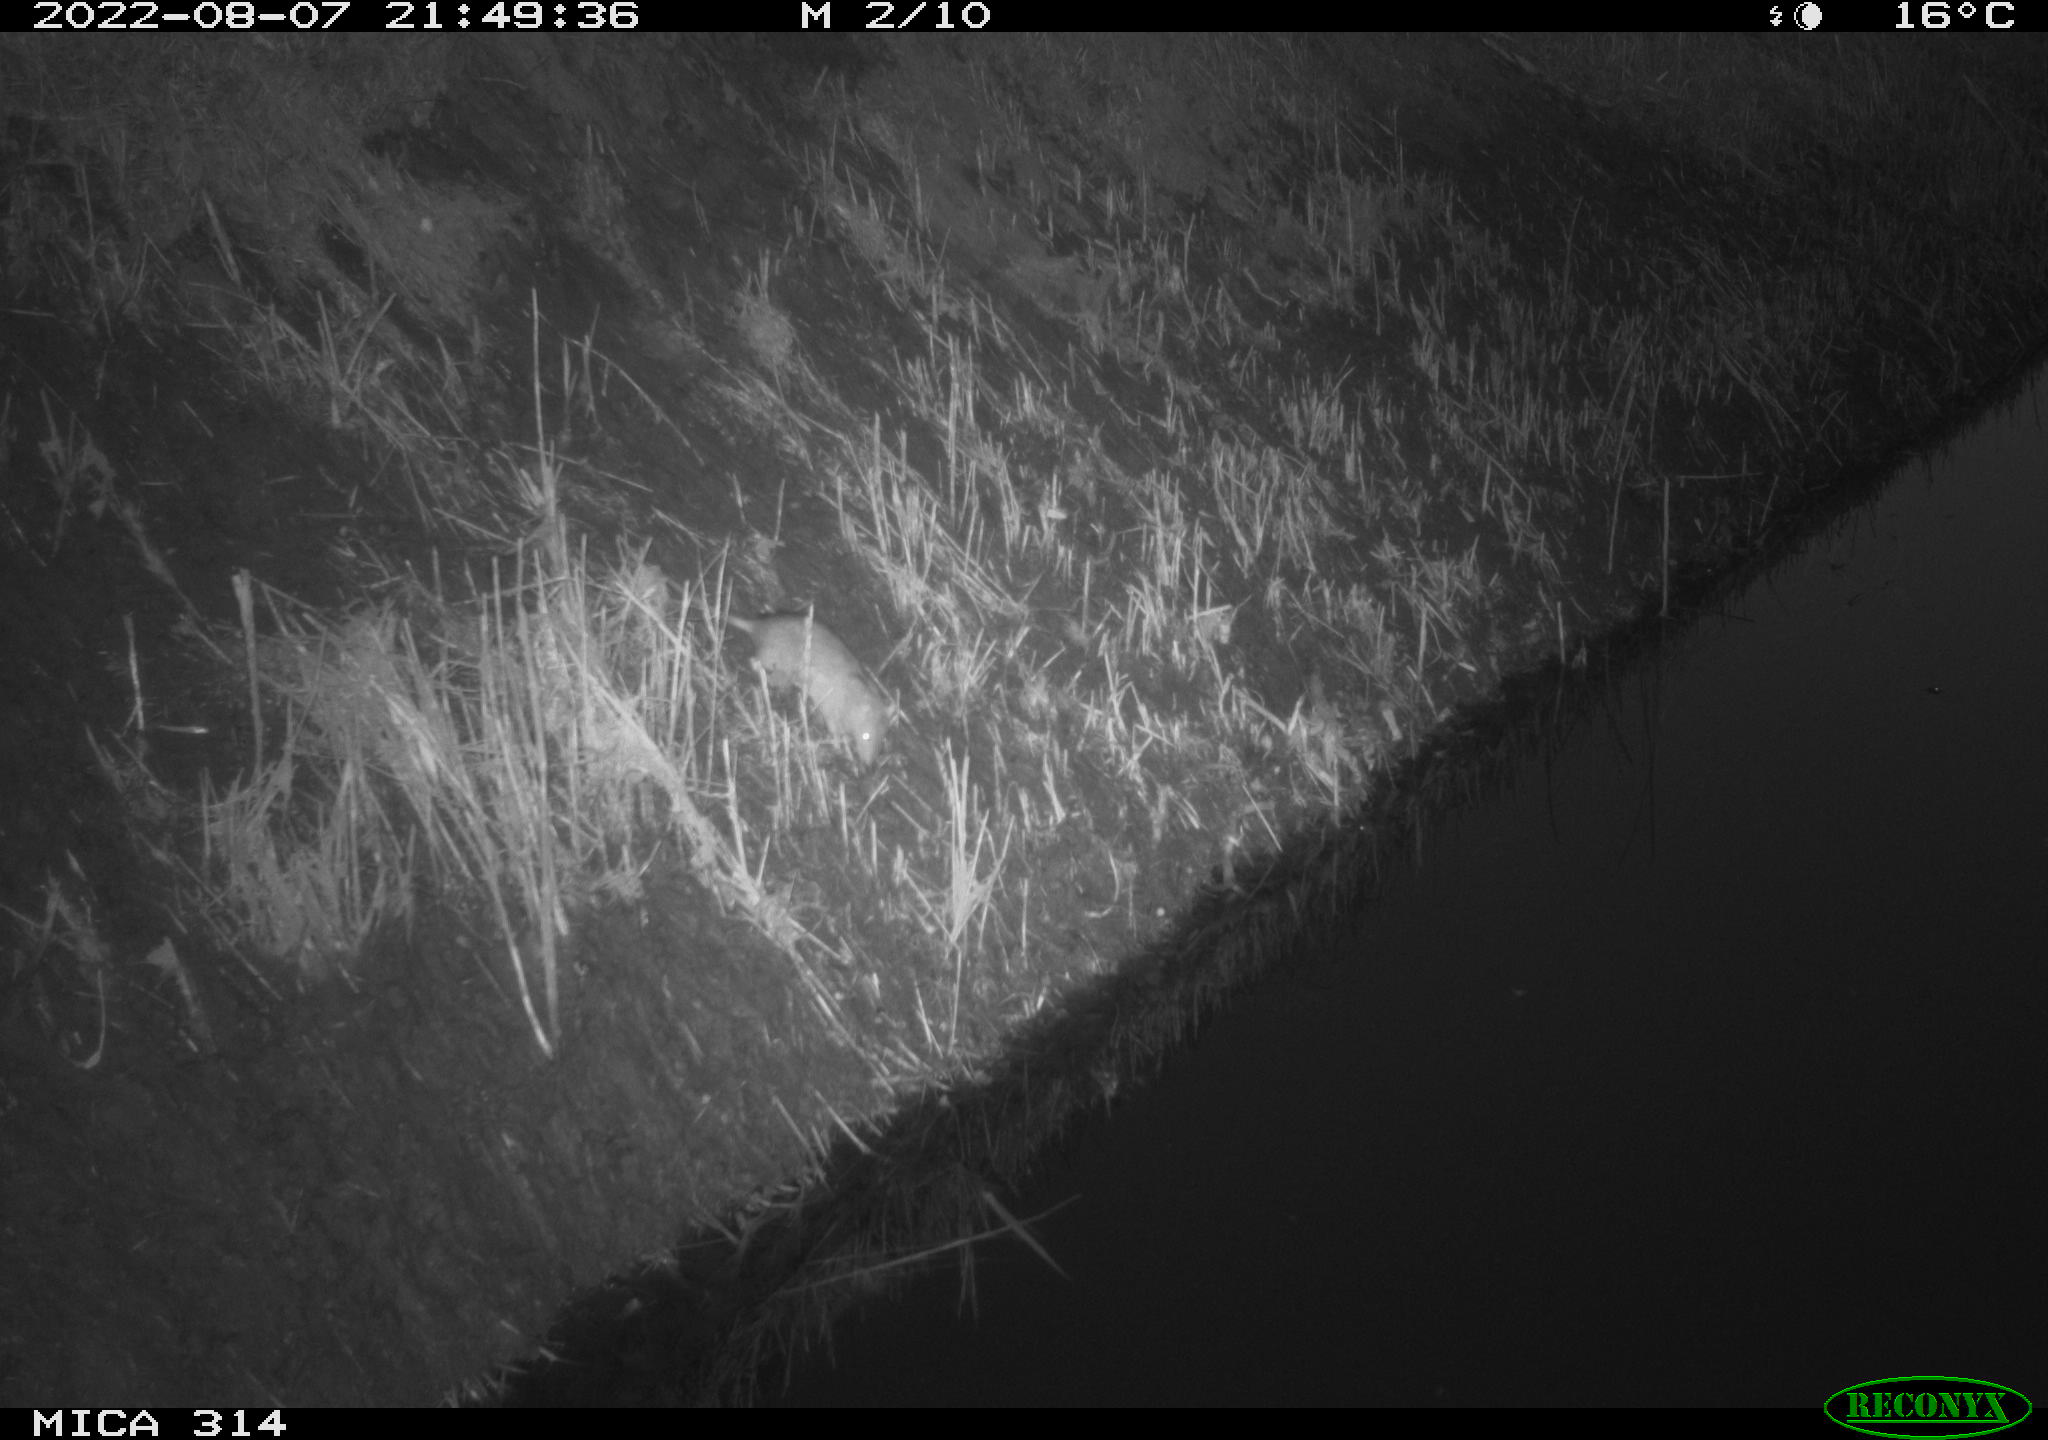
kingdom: Animalia
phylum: Chordata
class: Mammalia
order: Rodentia
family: Muridae
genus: Rattus
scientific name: Rattus norvegicus
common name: Brown rat
